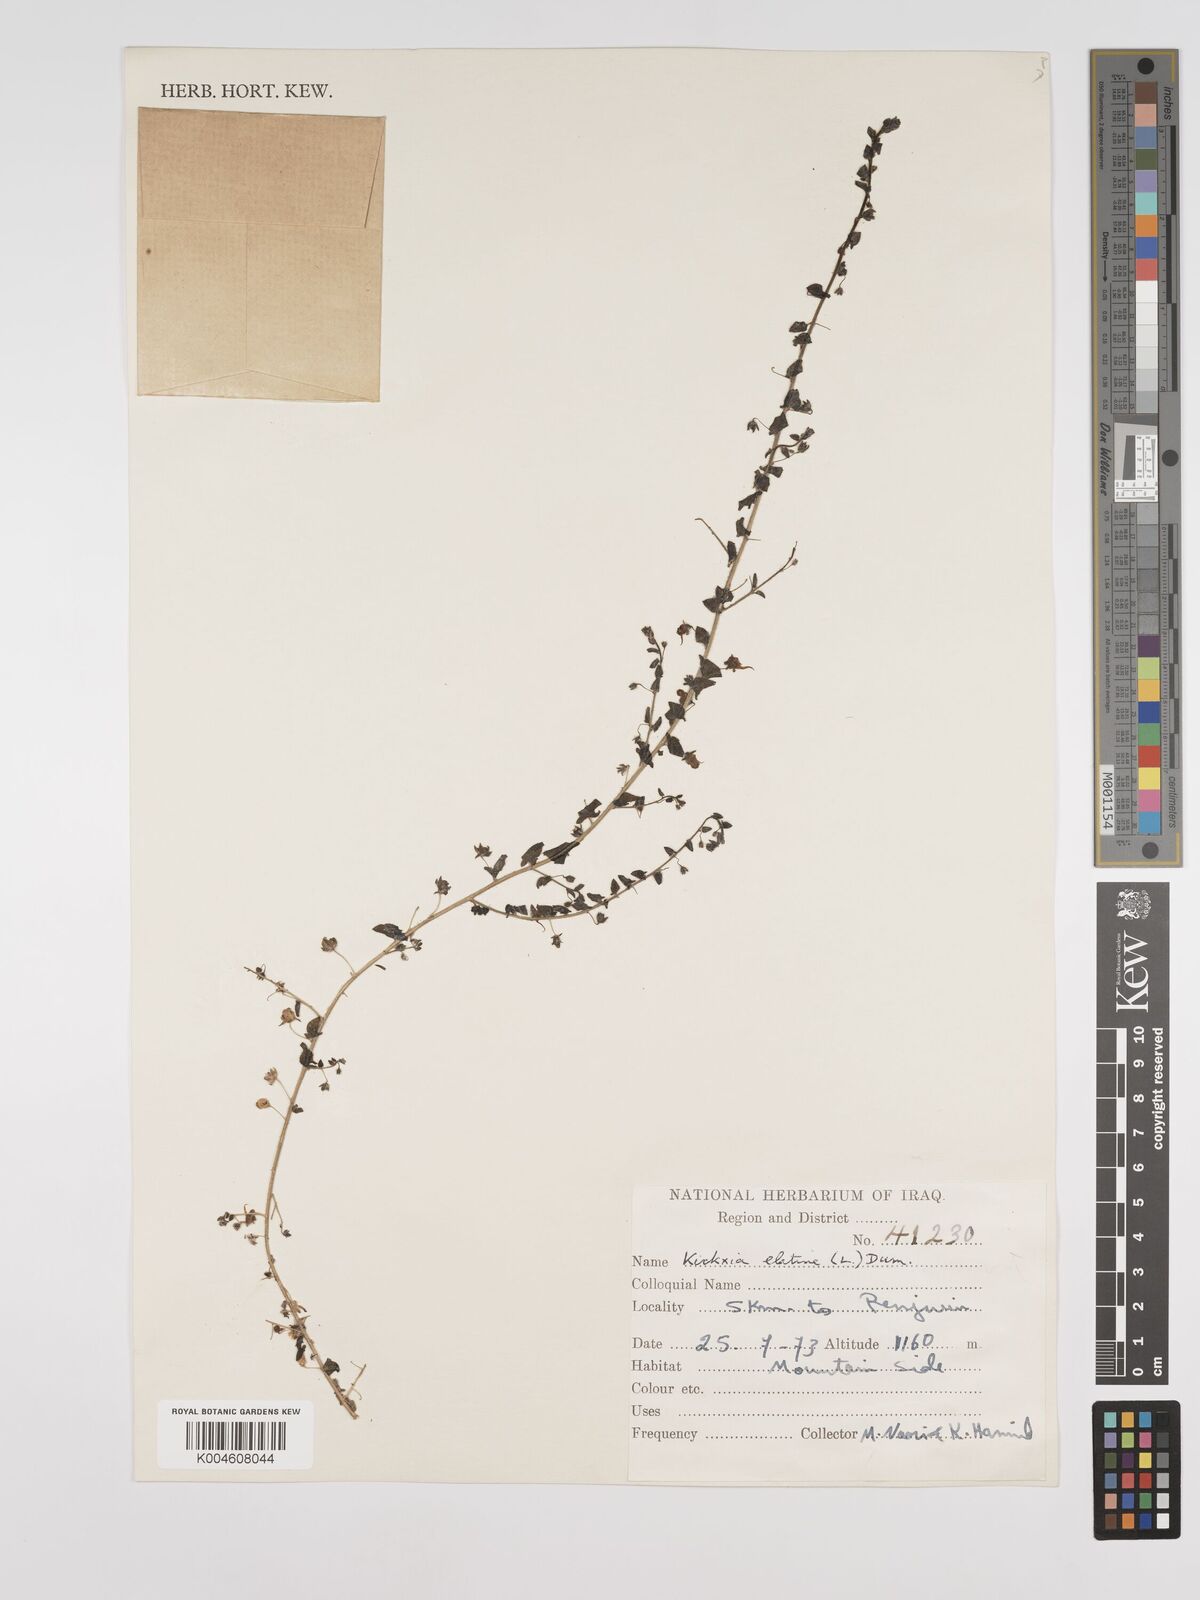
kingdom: Plantae
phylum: Tracheophyta
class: Magnoliopsida
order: Lamiales
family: Plantaginaceae
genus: Kickxia
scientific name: Kickxia elatine
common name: Sharp-leaved fluellen
